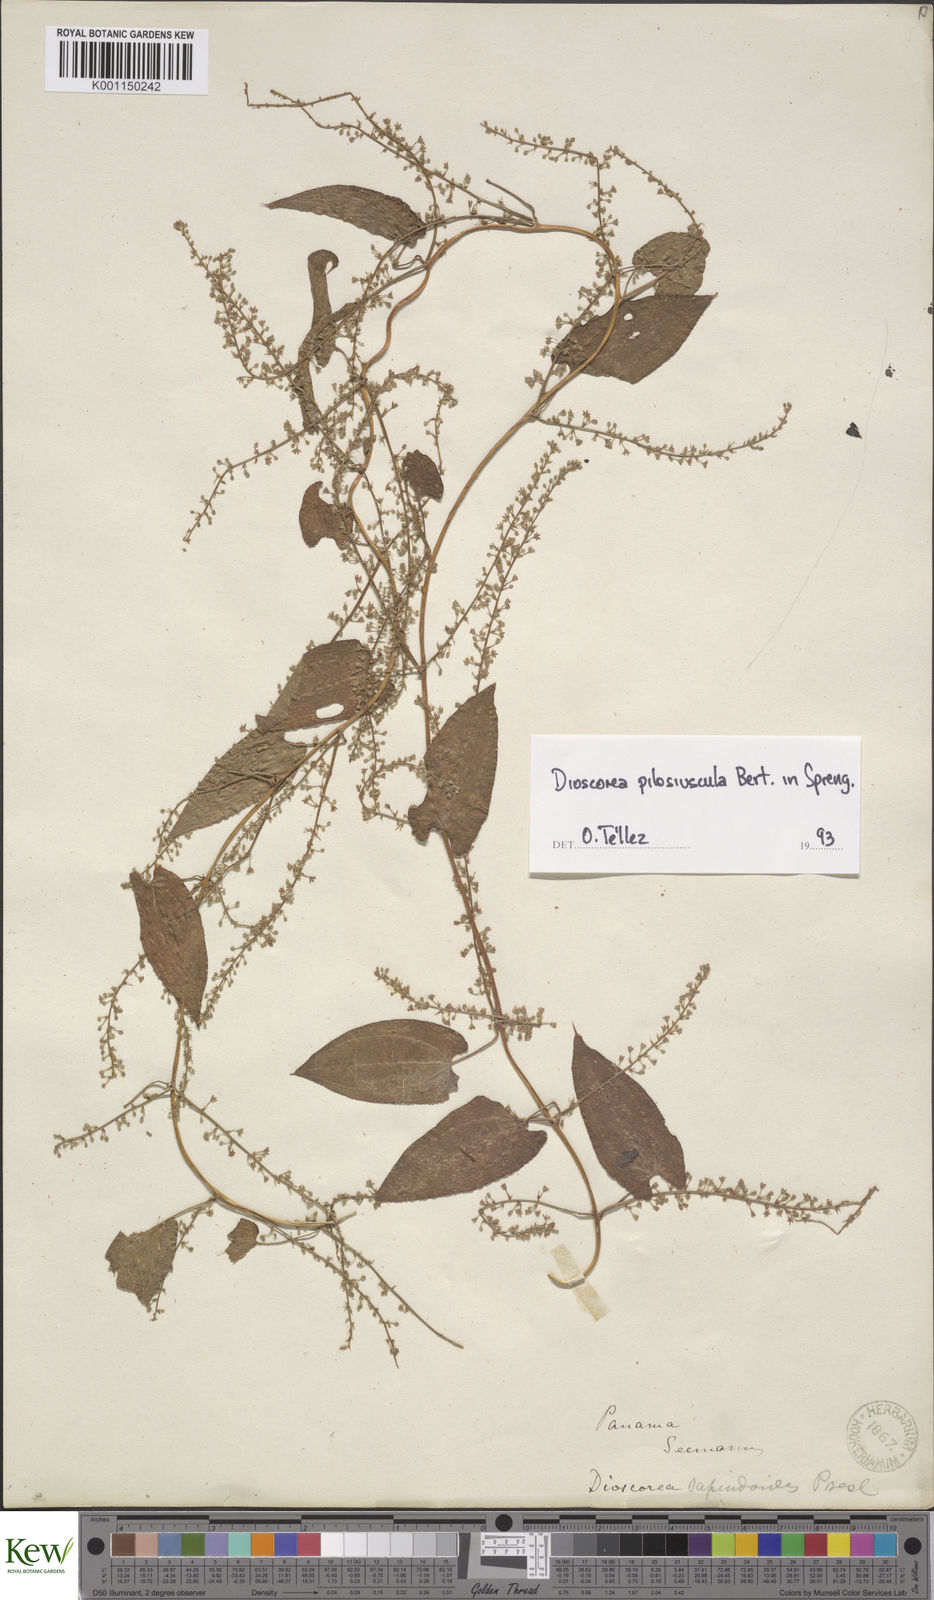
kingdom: Plantae
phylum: Tracheophyta
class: Liliopsida
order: Dioscoreales
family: Dioscoreaceae
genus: Dioscorea
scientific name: Dioscorea pilosiuscula
